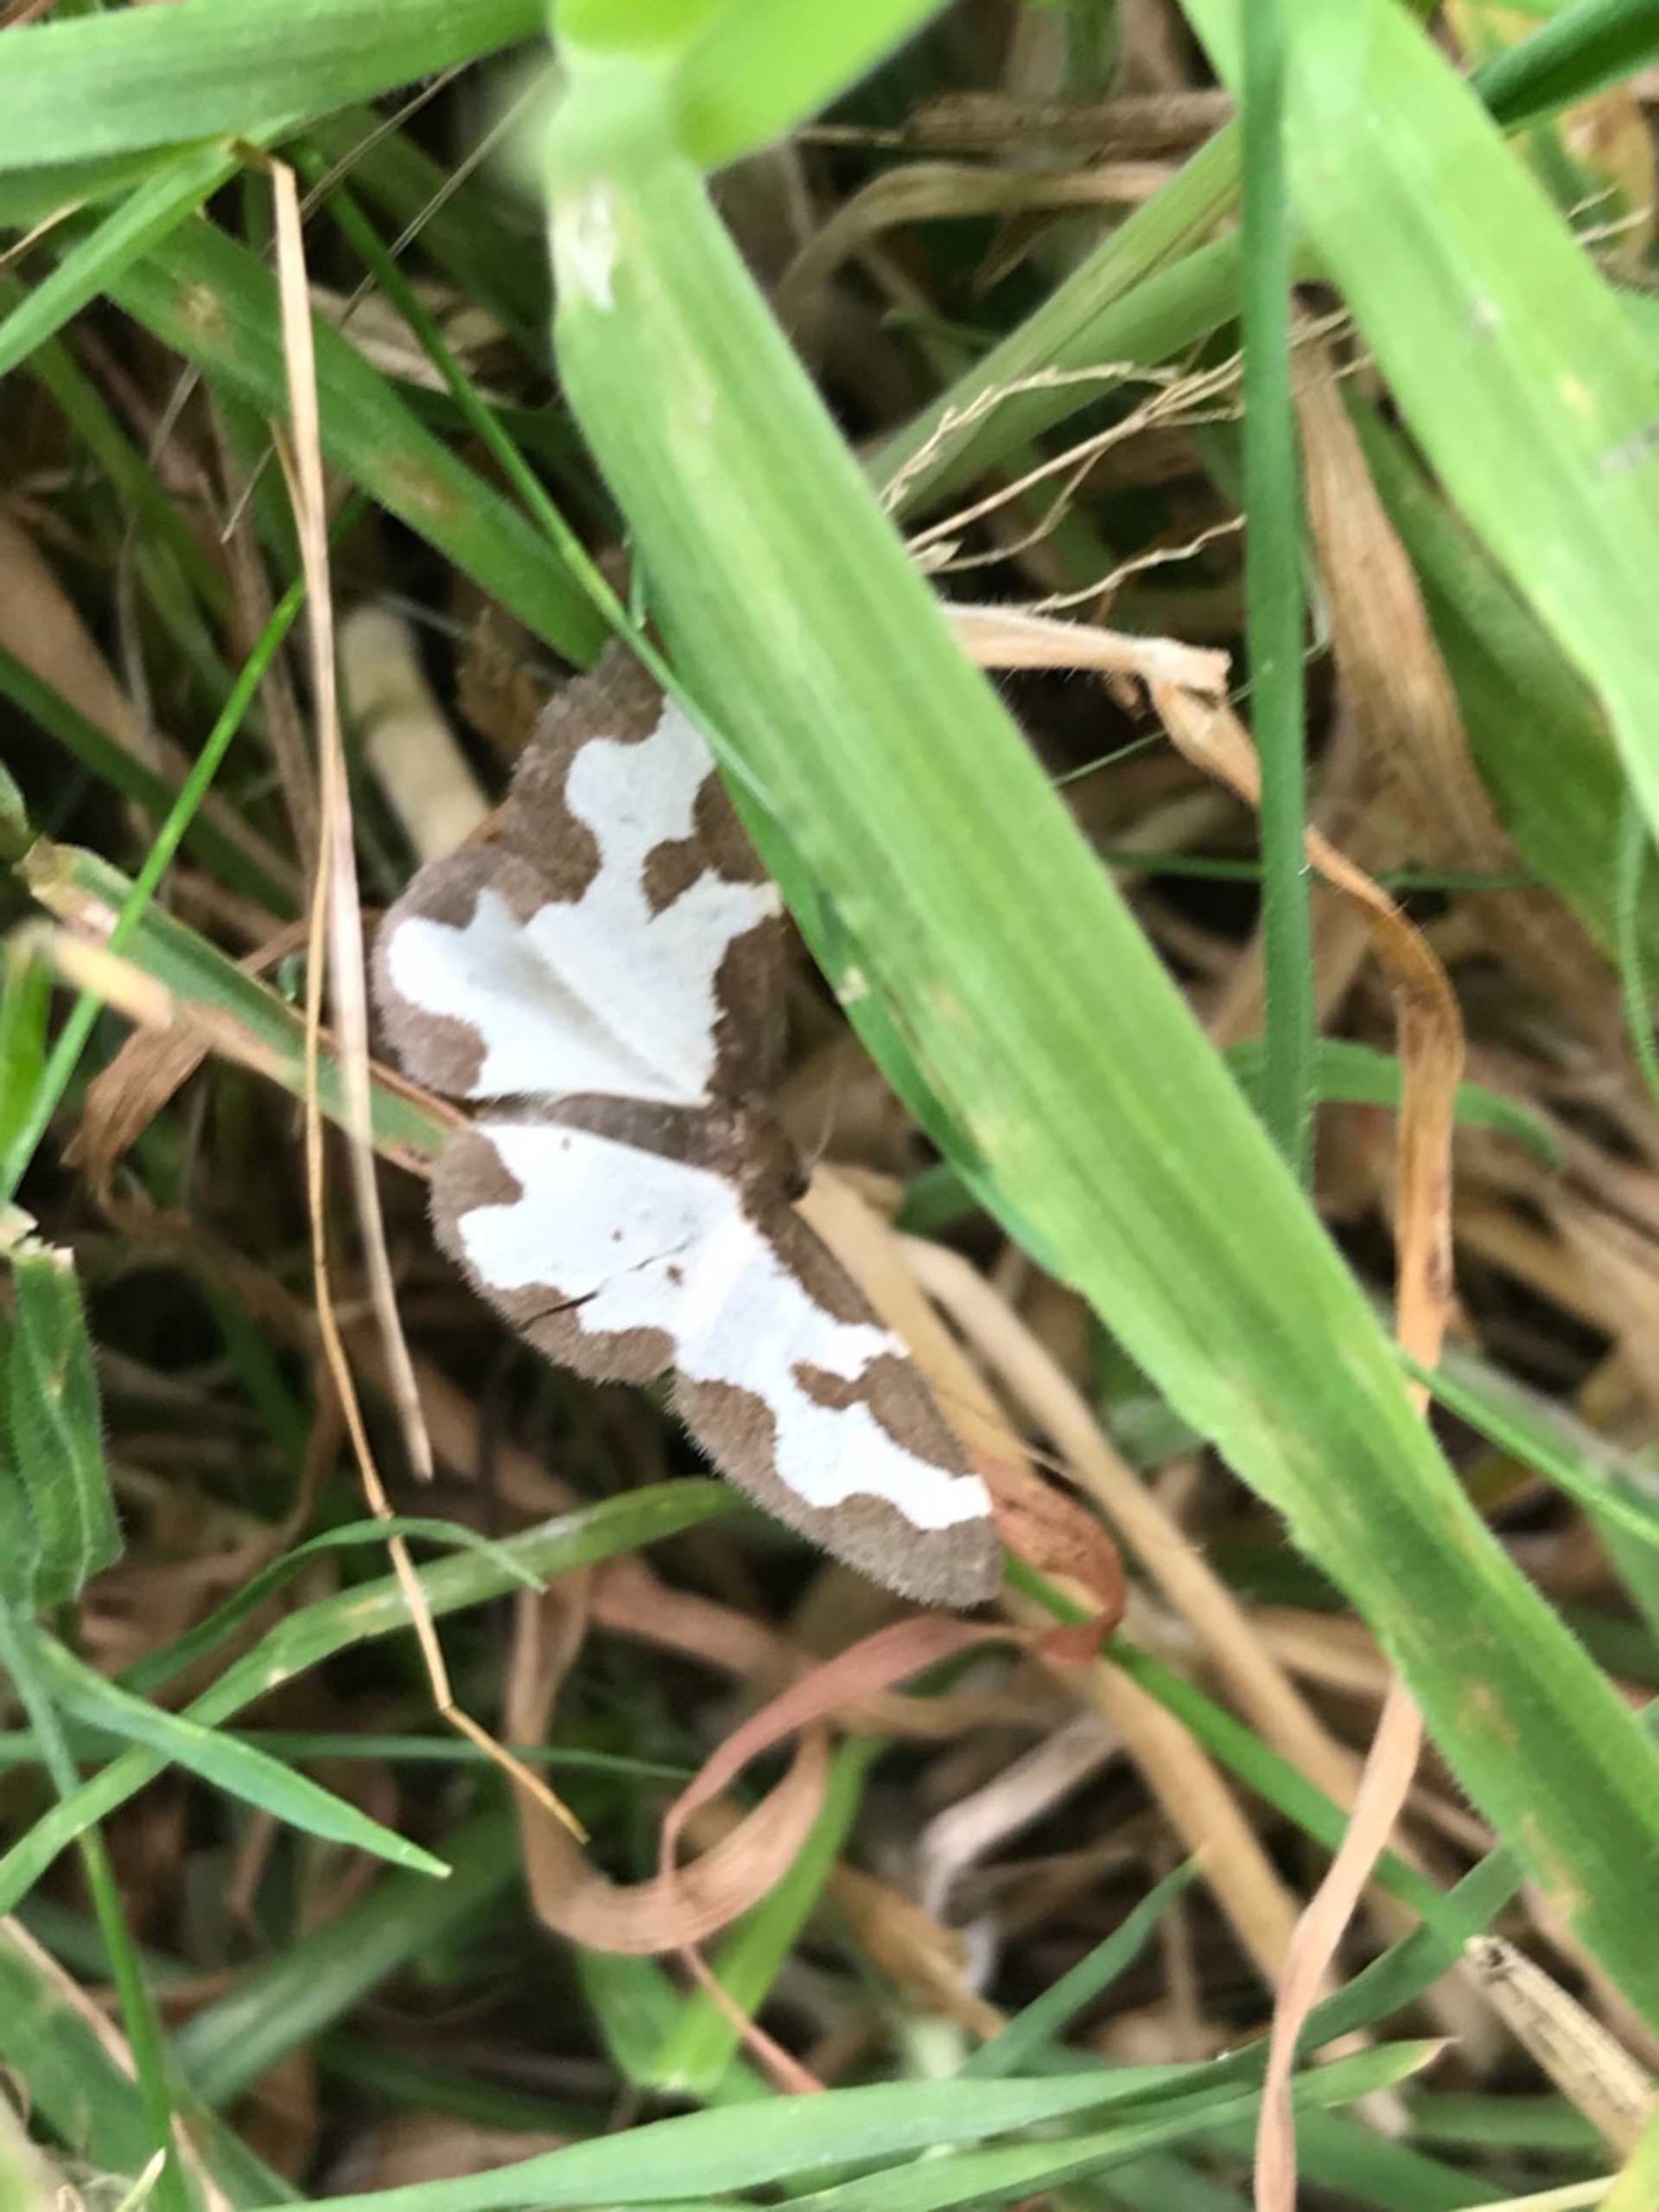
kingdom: Animalia
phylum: Arthropoda
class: Insecta
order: Lepidoptera
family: Geometridae
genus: Lomaspilis
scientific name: Lomaspilis marginata
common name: Sortrandet måler
